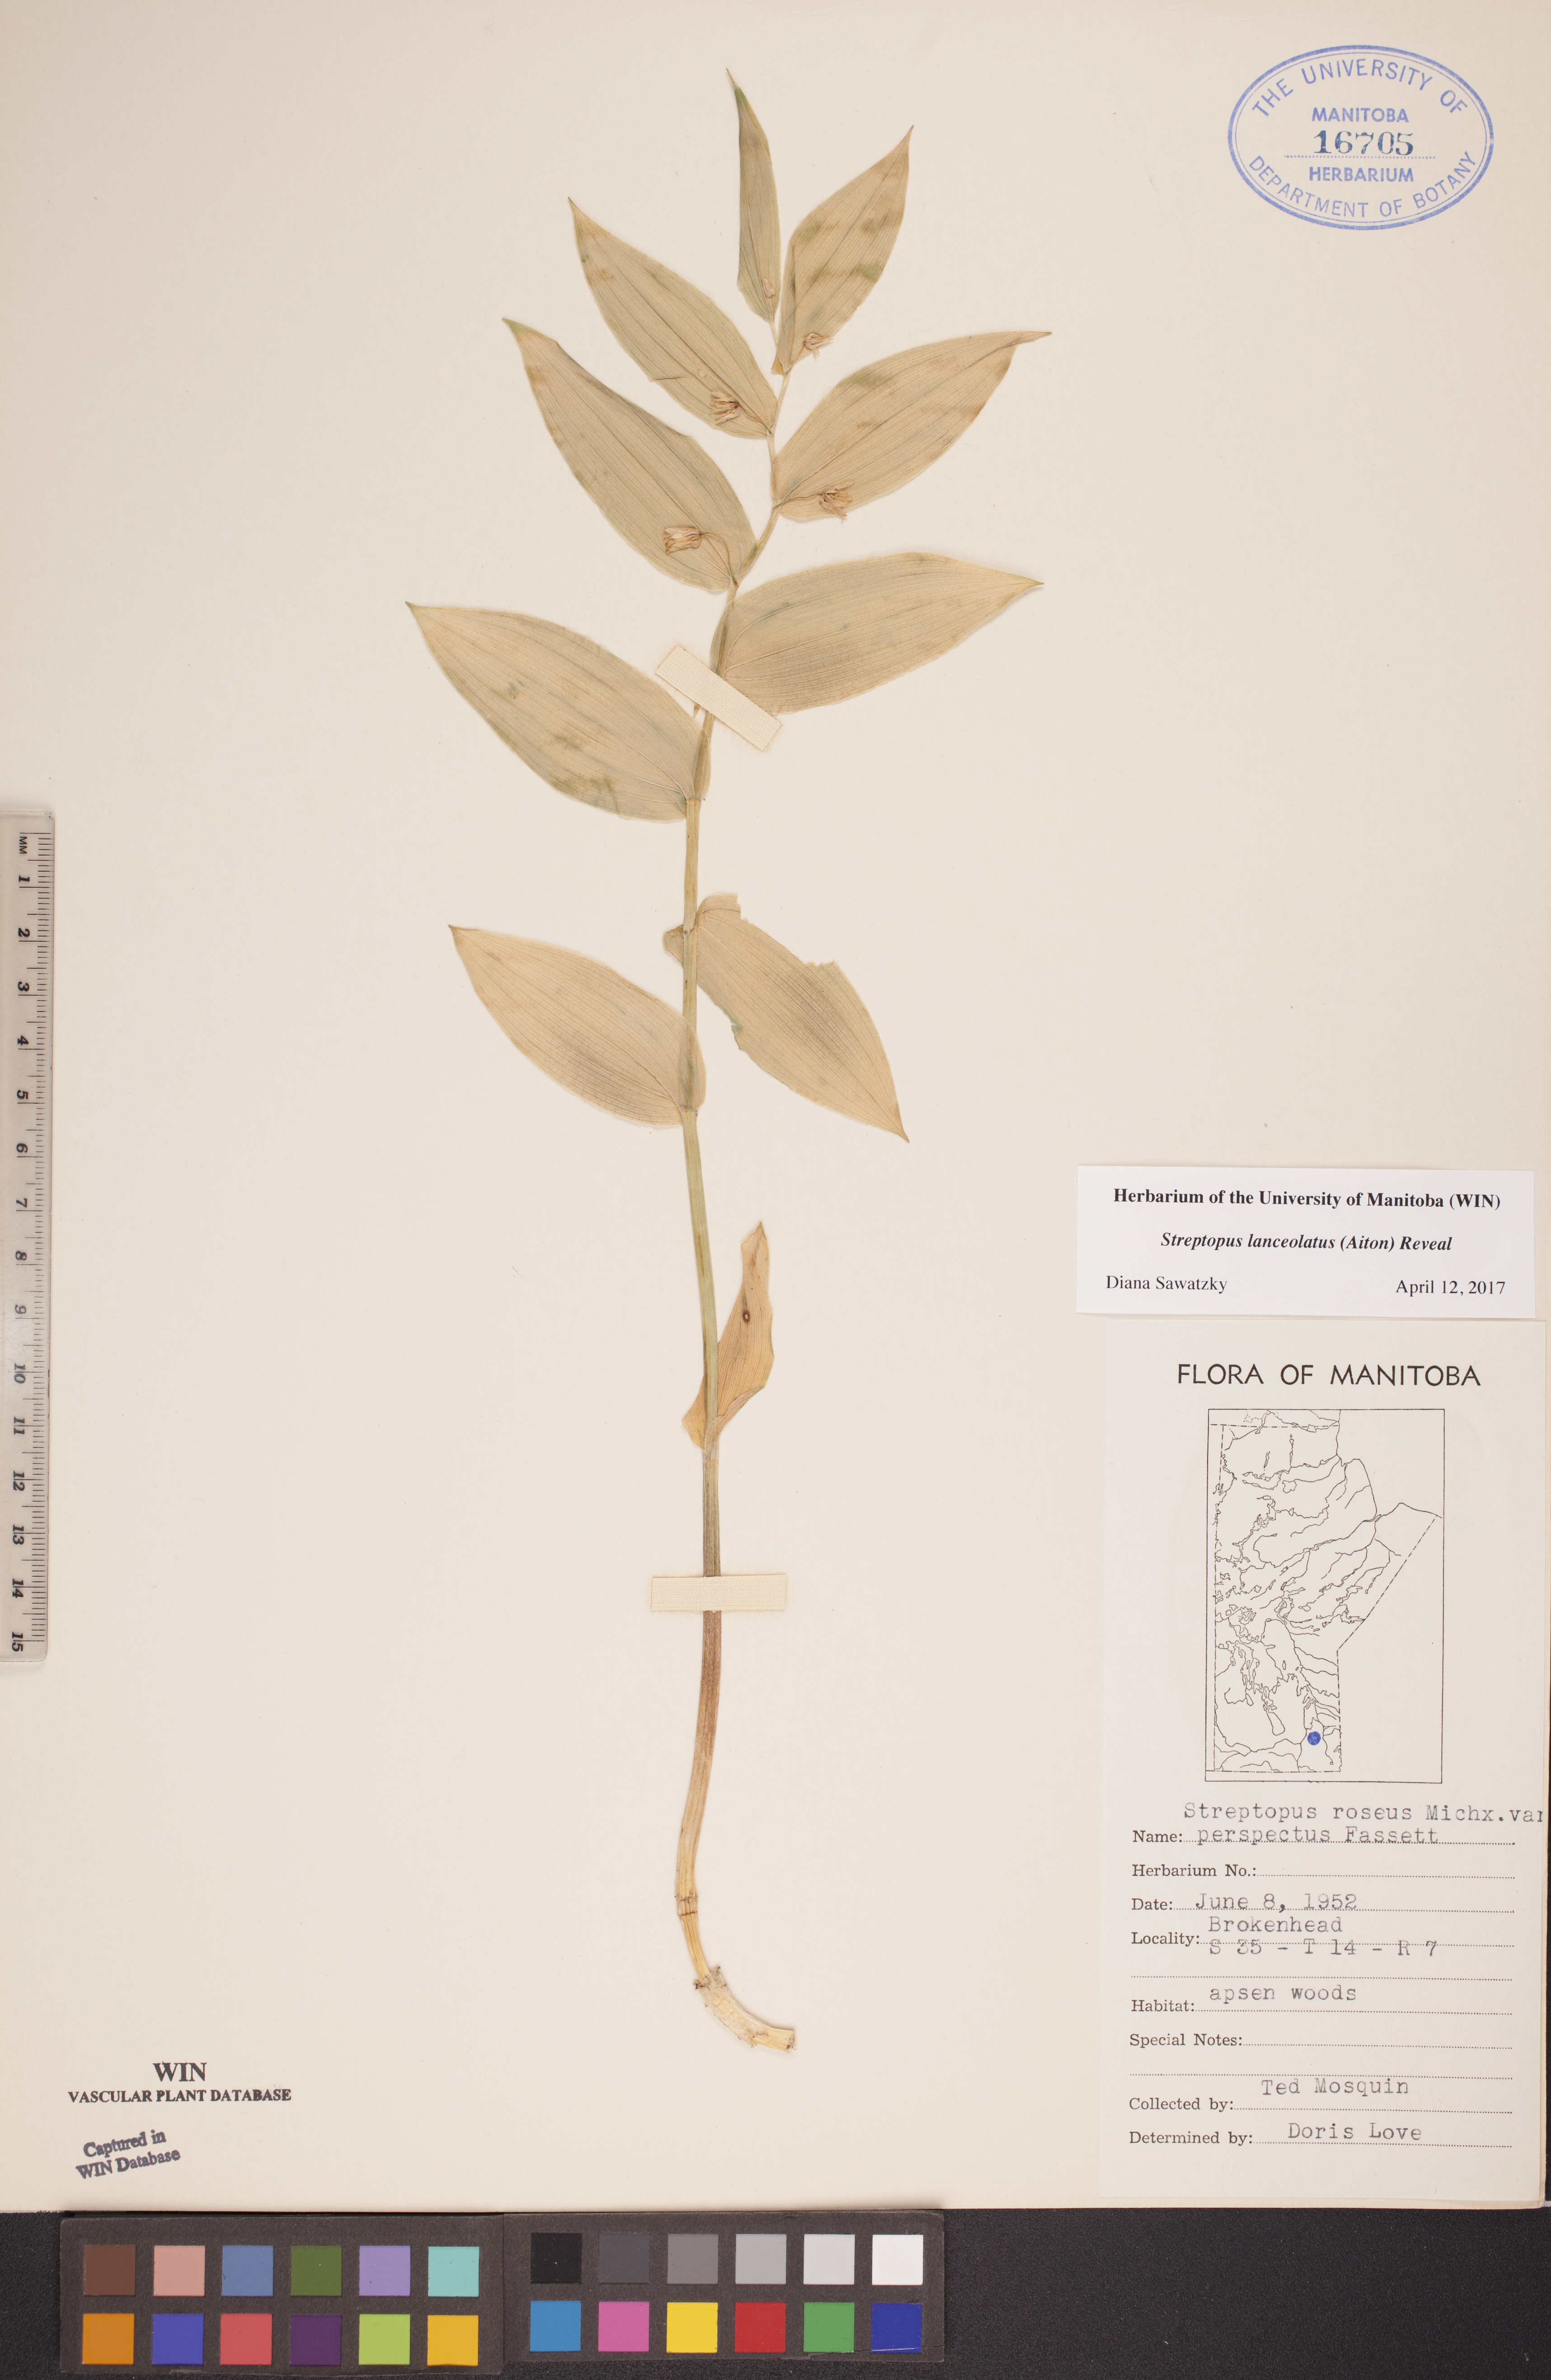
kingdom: Plantae
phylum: Tracheophyta
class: Liliopsida
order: Liliales
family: Liliaceae
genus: Streptopus
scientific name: Streptopus lanceolatus
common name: Rose mandarin
